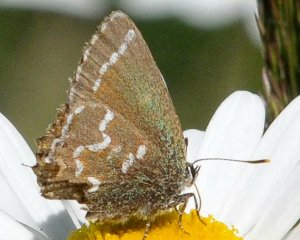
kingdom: Animalia
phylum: Arthropoda
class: Insecta
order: Lepidoptera
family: Lycaenidae
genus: Mitoura
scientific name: Mitoura gryneus
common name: Juniper Hairstreak
